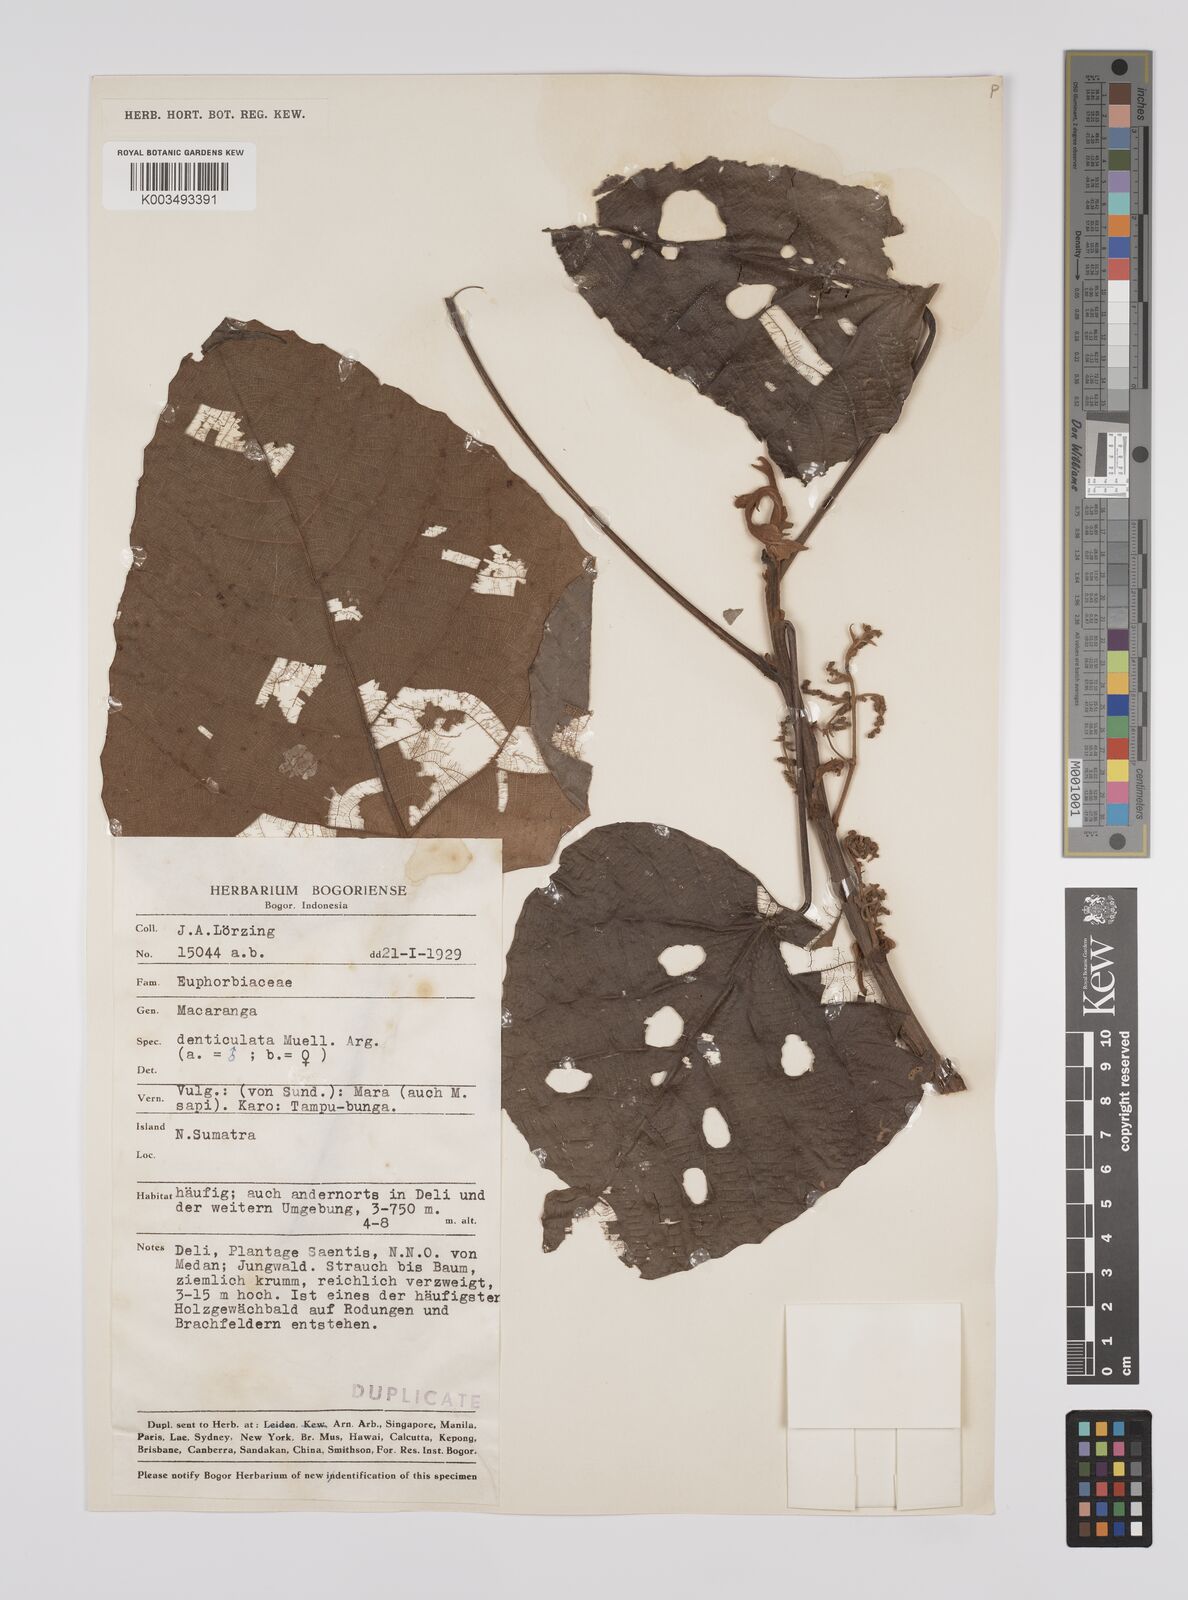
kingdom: Plantae
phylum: Tracheophyta
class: Magnoliopsida
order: Malpighiales
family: Euphorbiaceae
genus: Macaranga
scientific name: Macaranga denticulata
